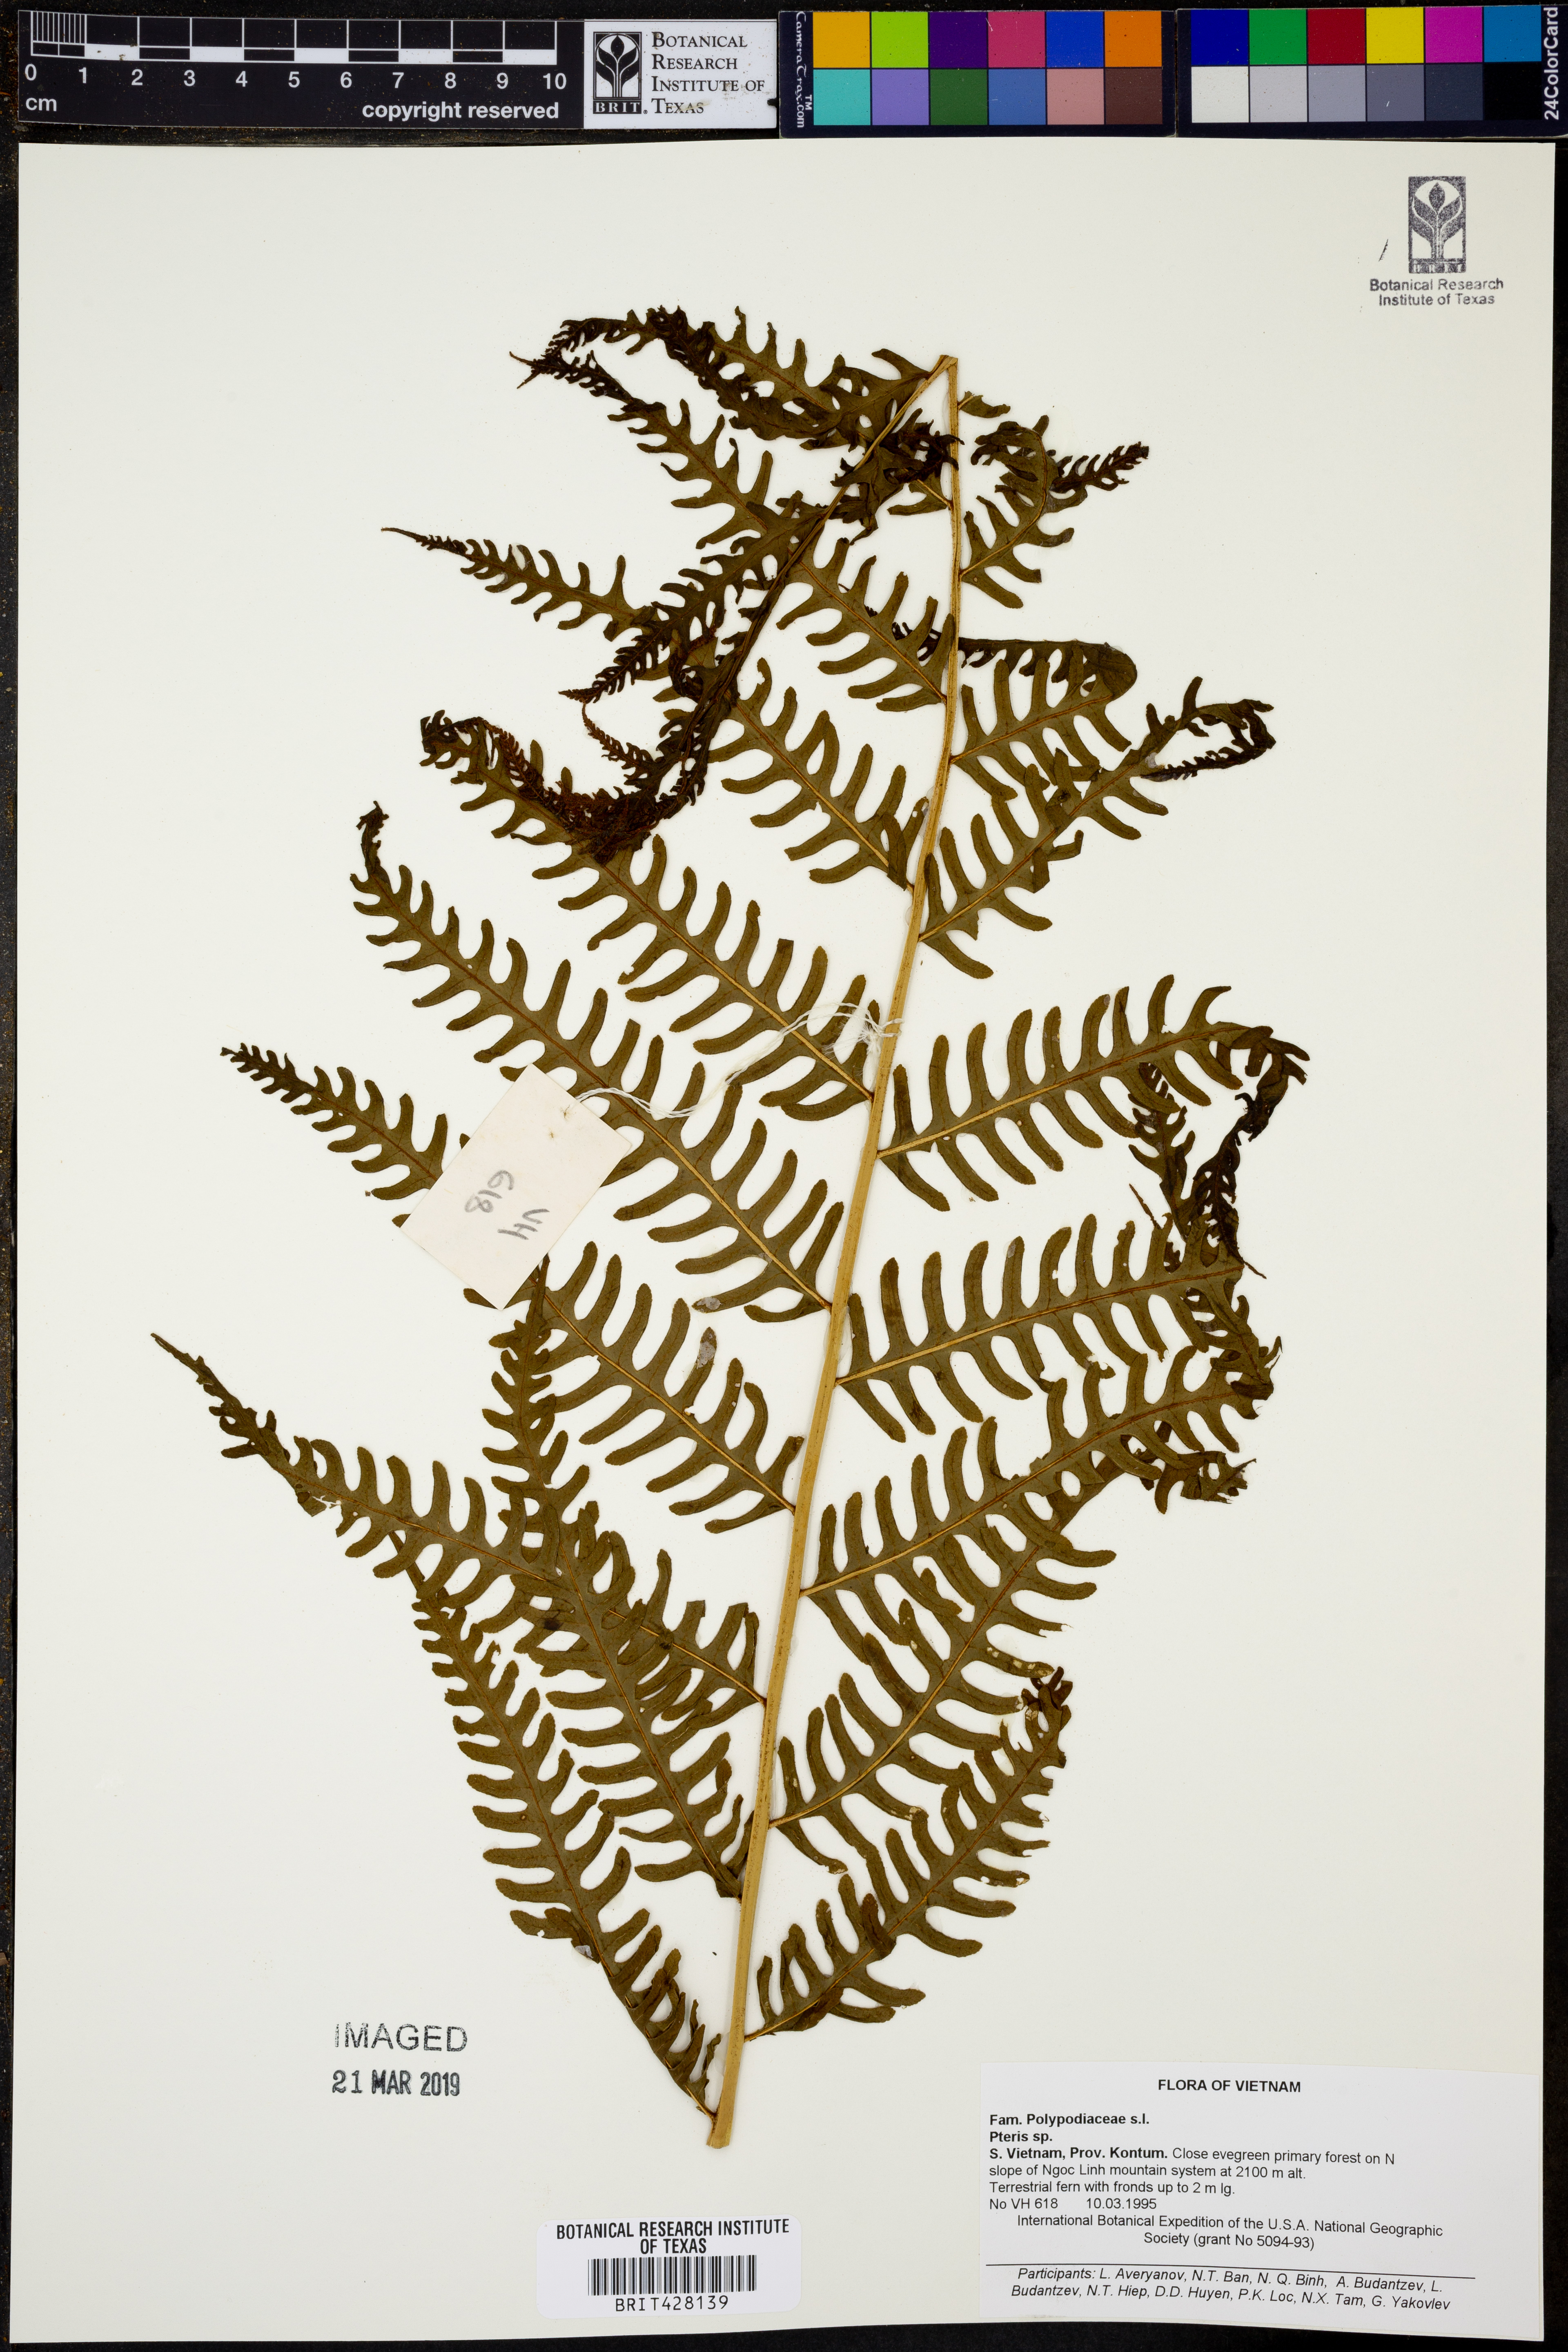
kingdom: Plantae
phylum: Tracheophyta
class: Polypodiopsida
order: Polypodiales
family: Pteridaceae
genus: Pteris
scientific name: Pteris
